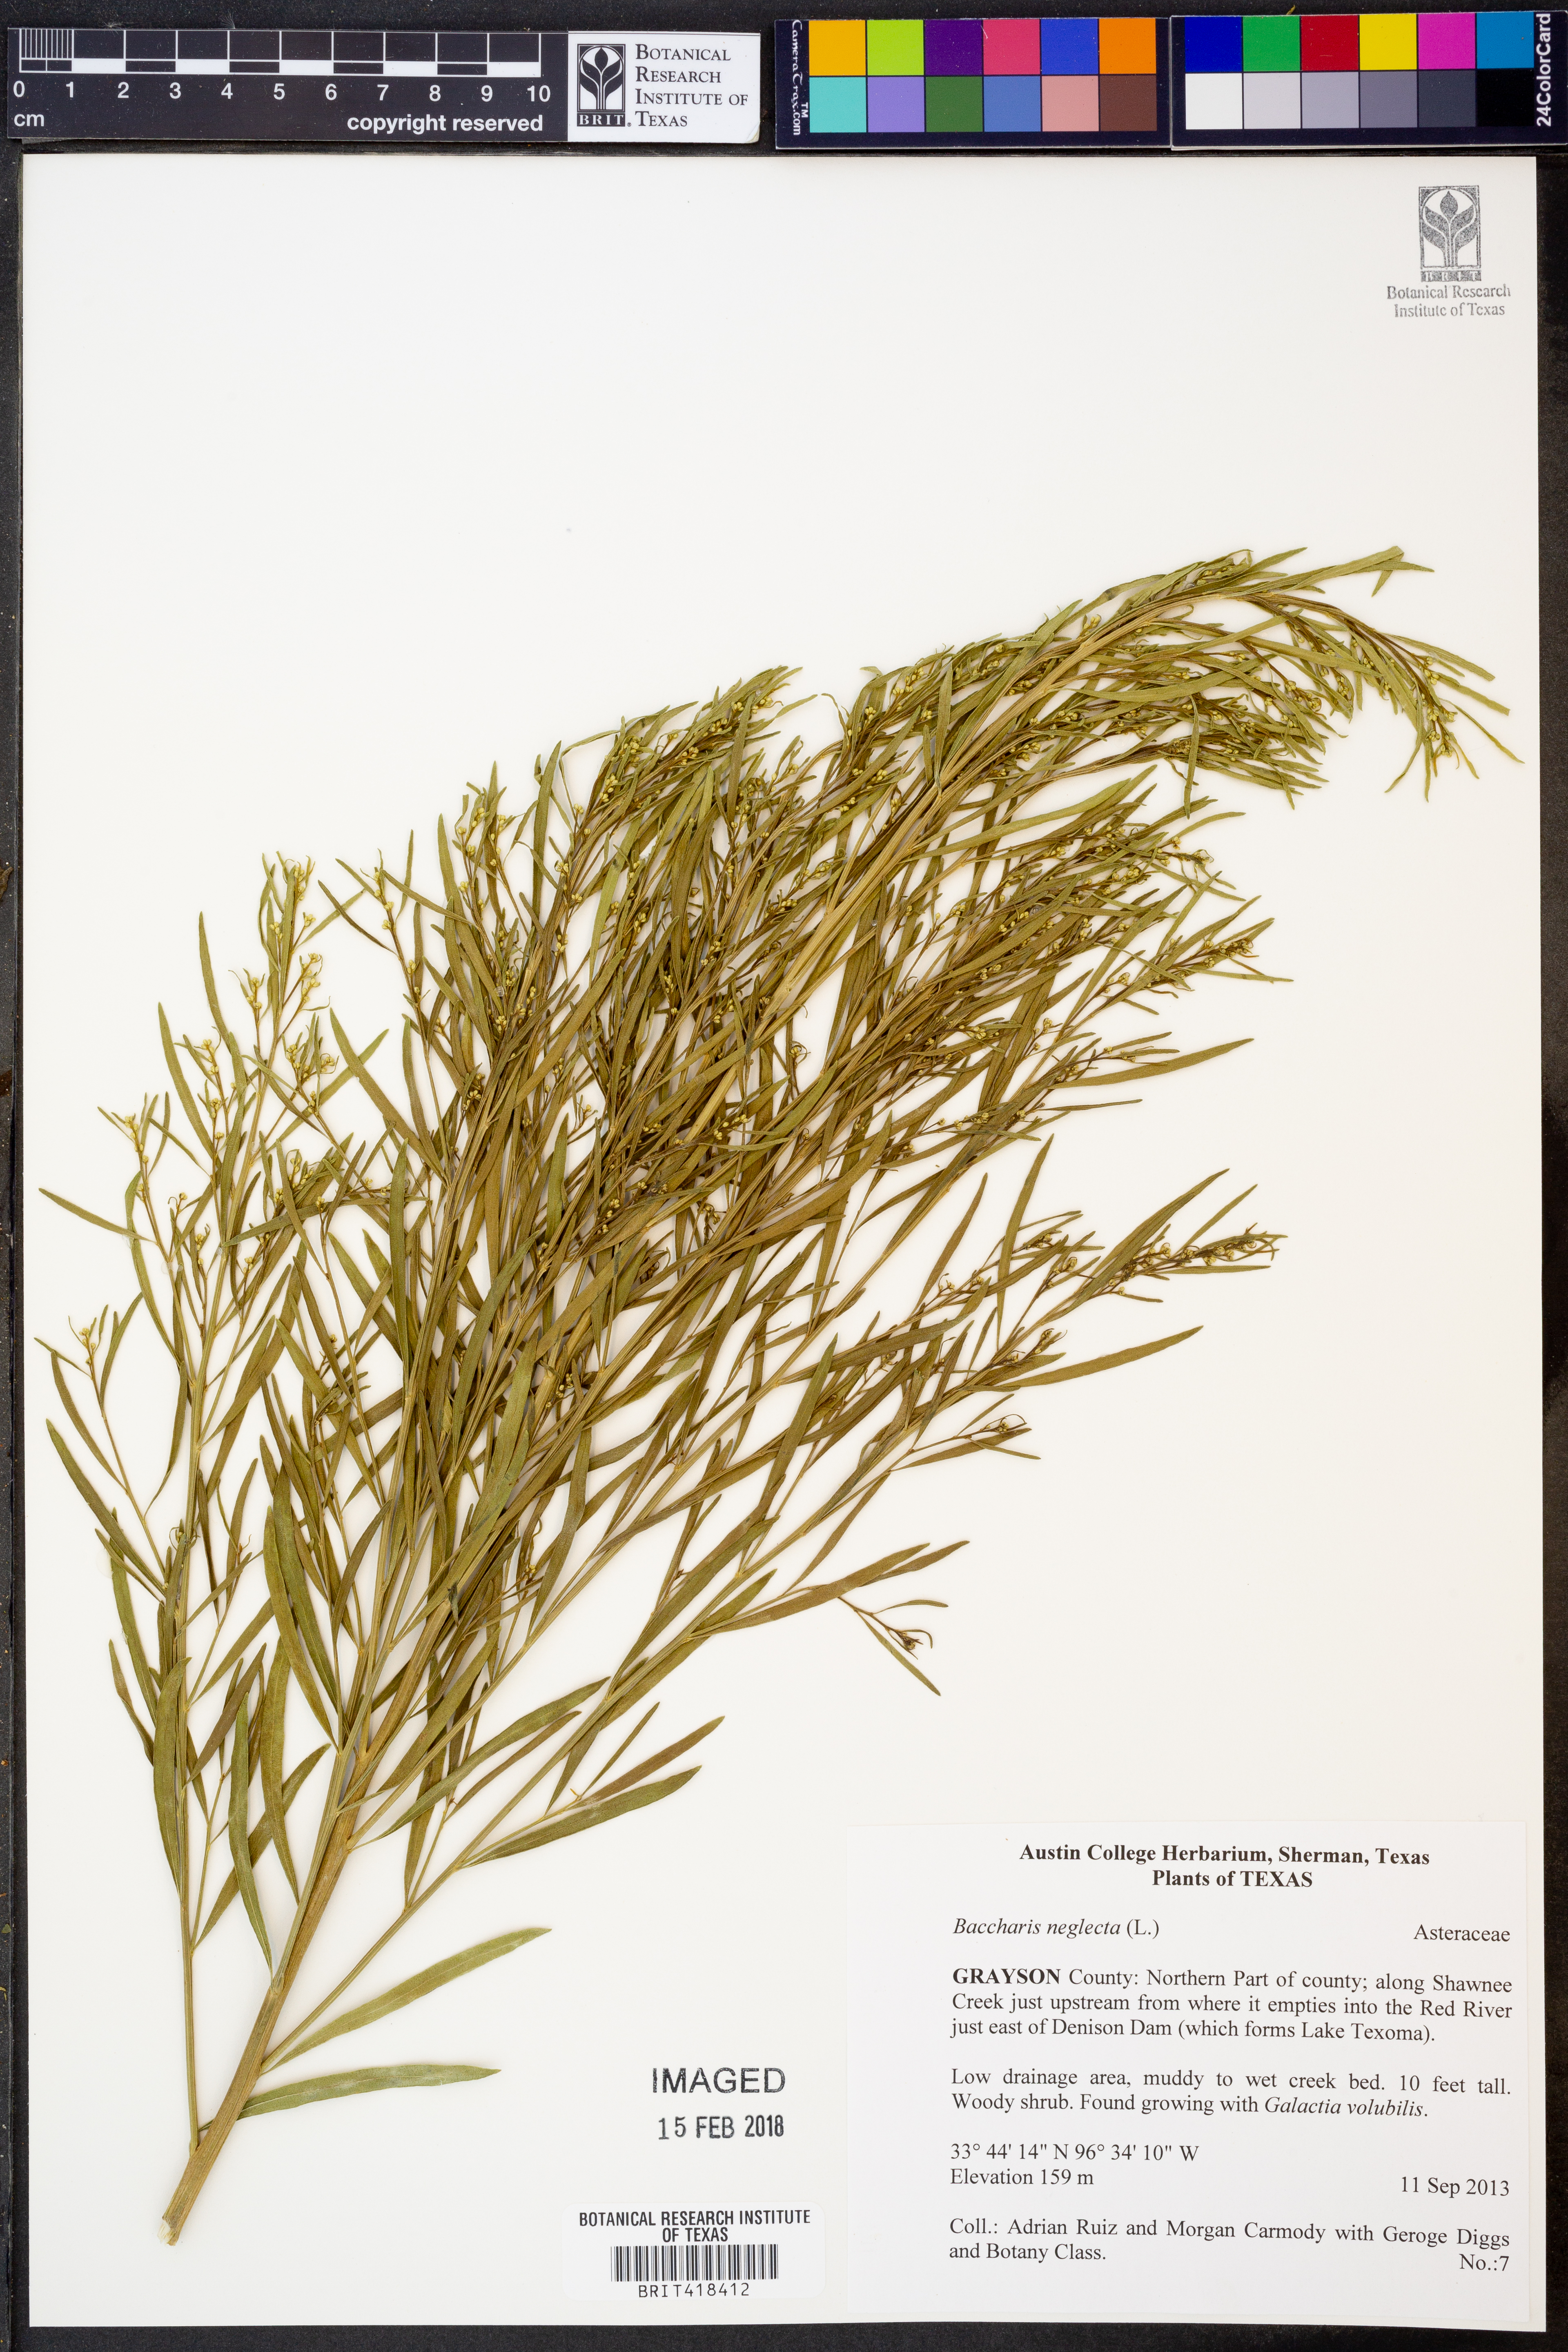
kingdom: Plantae
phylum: Tracheophyta
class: Magnoliopsida
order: Asterales
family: Asteraceae
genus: Baccharis
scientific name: Baccharis neglecta
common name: Roosevelt-weed
